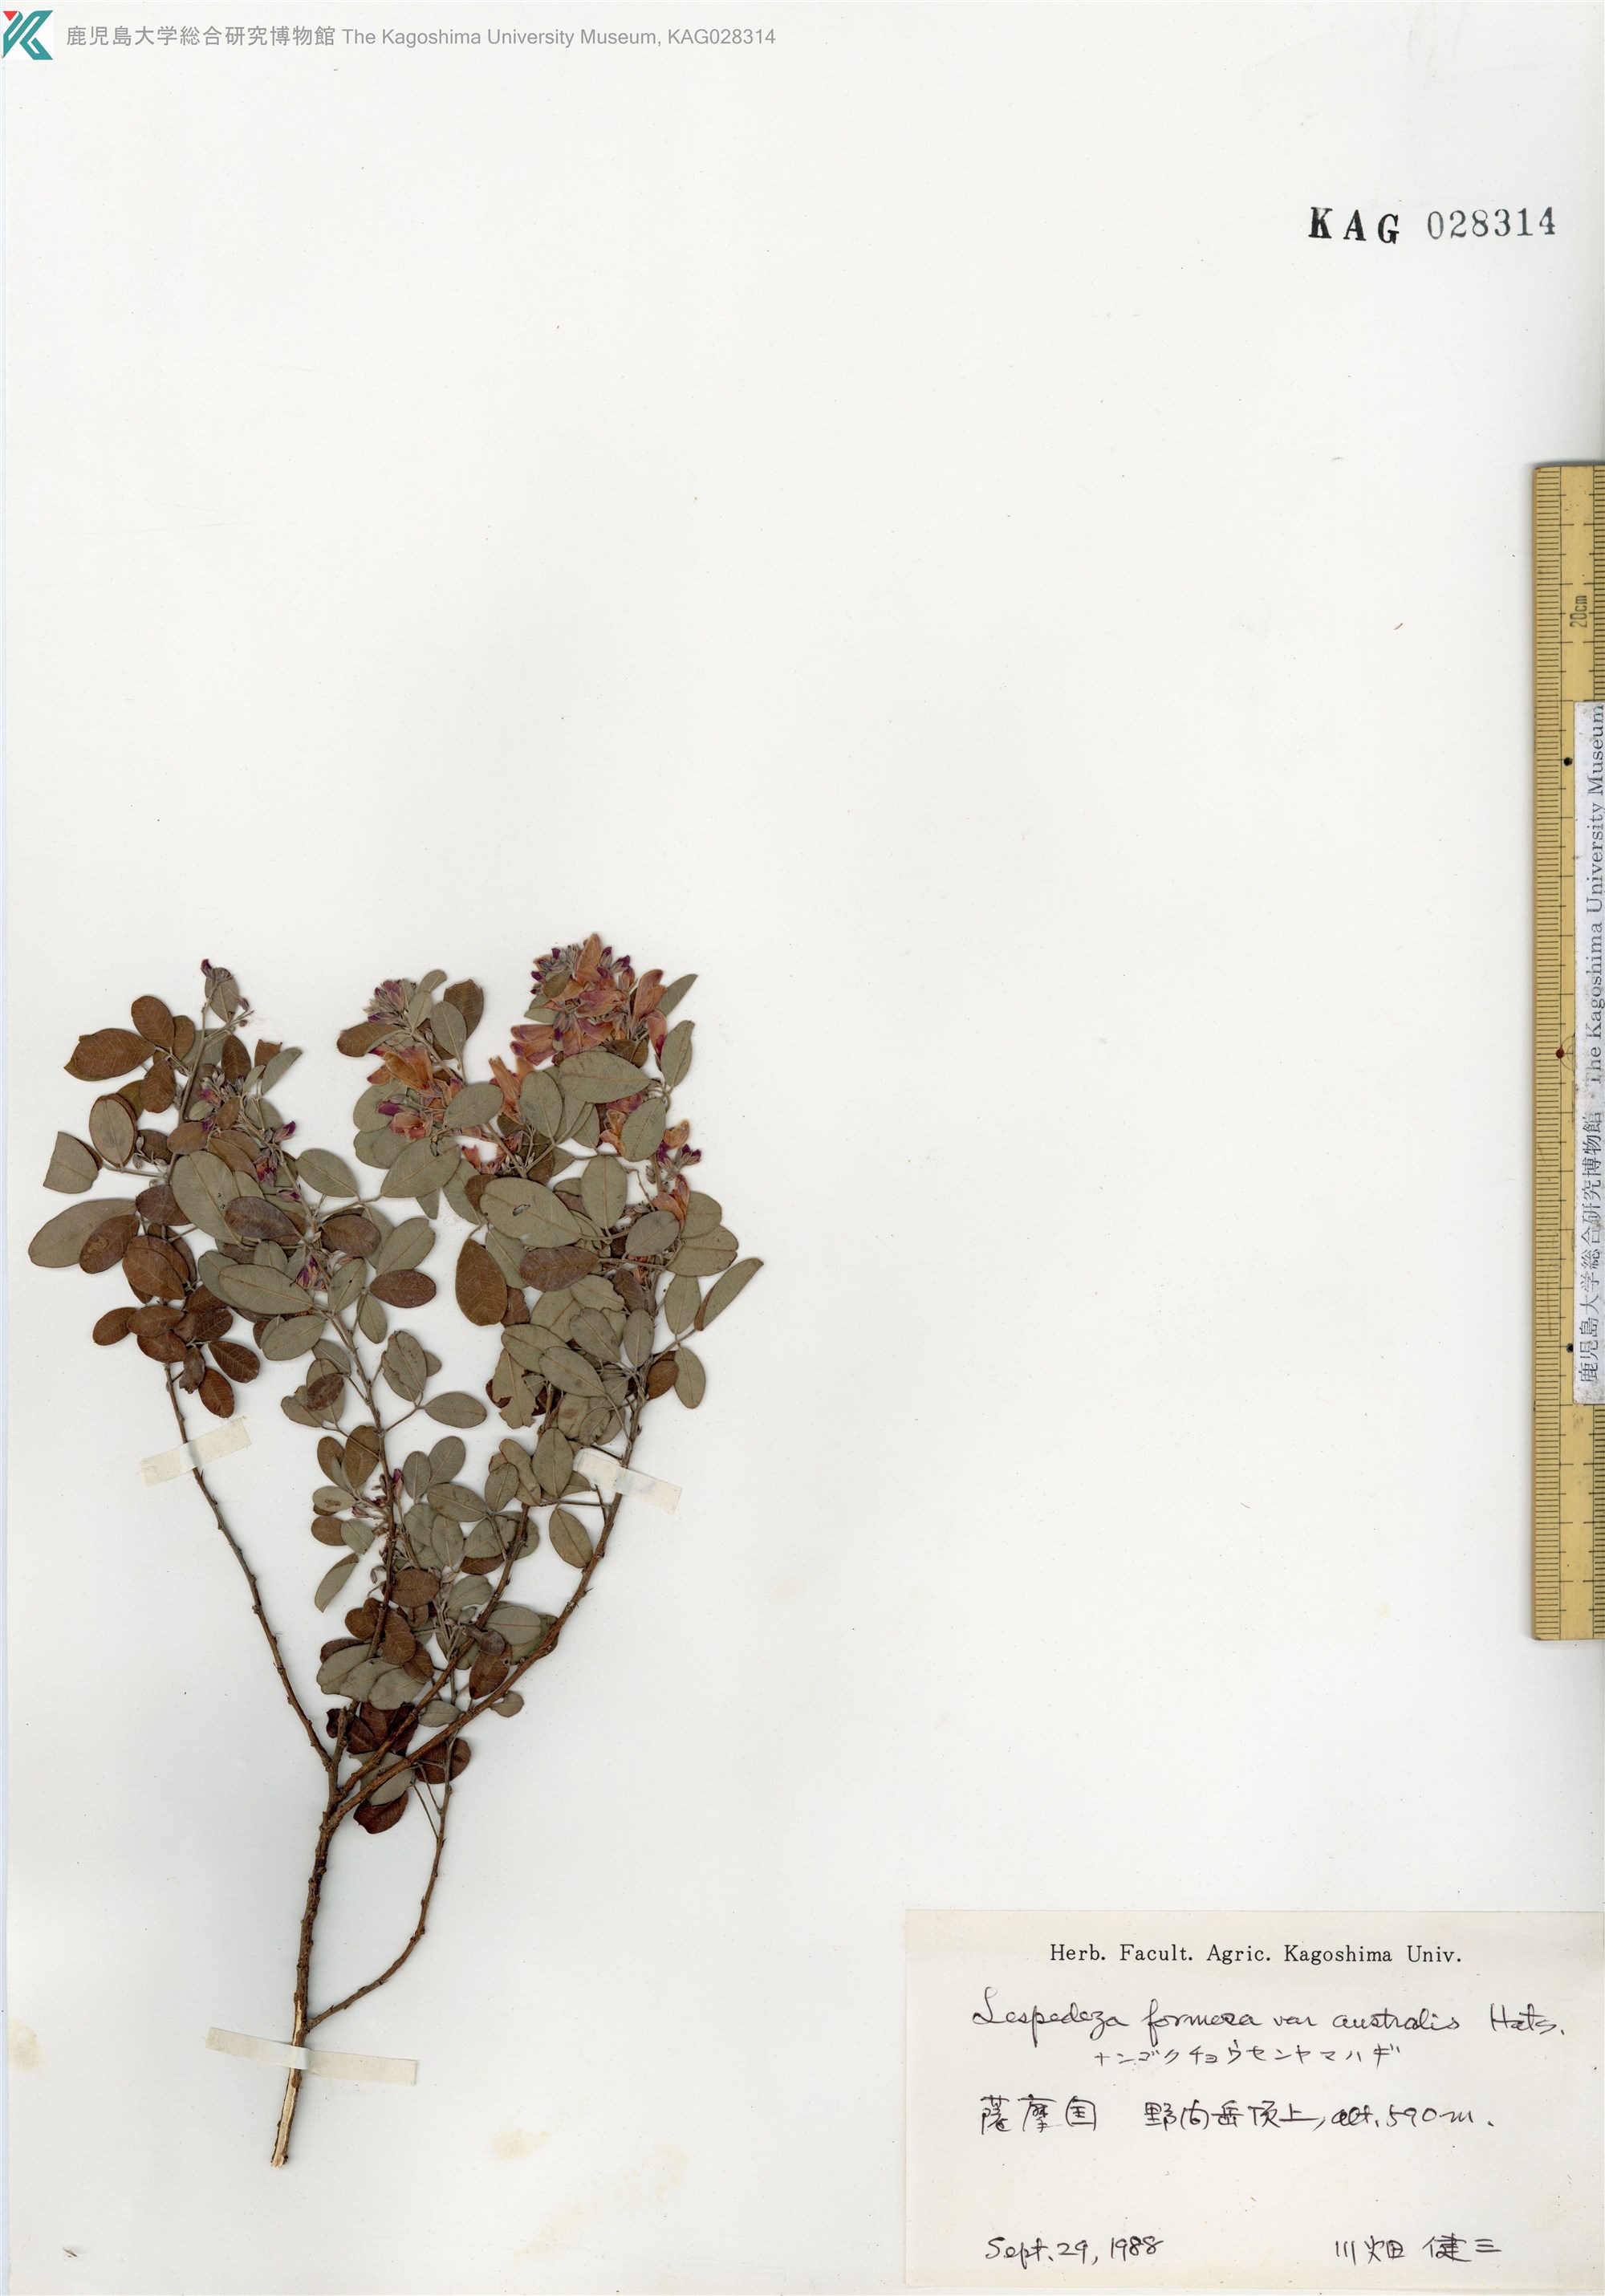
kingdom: Plantae
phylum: Tracheophyta
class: Magnoliopsida
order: Fabales
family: Fabaceae
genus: Lespedeza
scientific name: Lespedeza thunbergii
